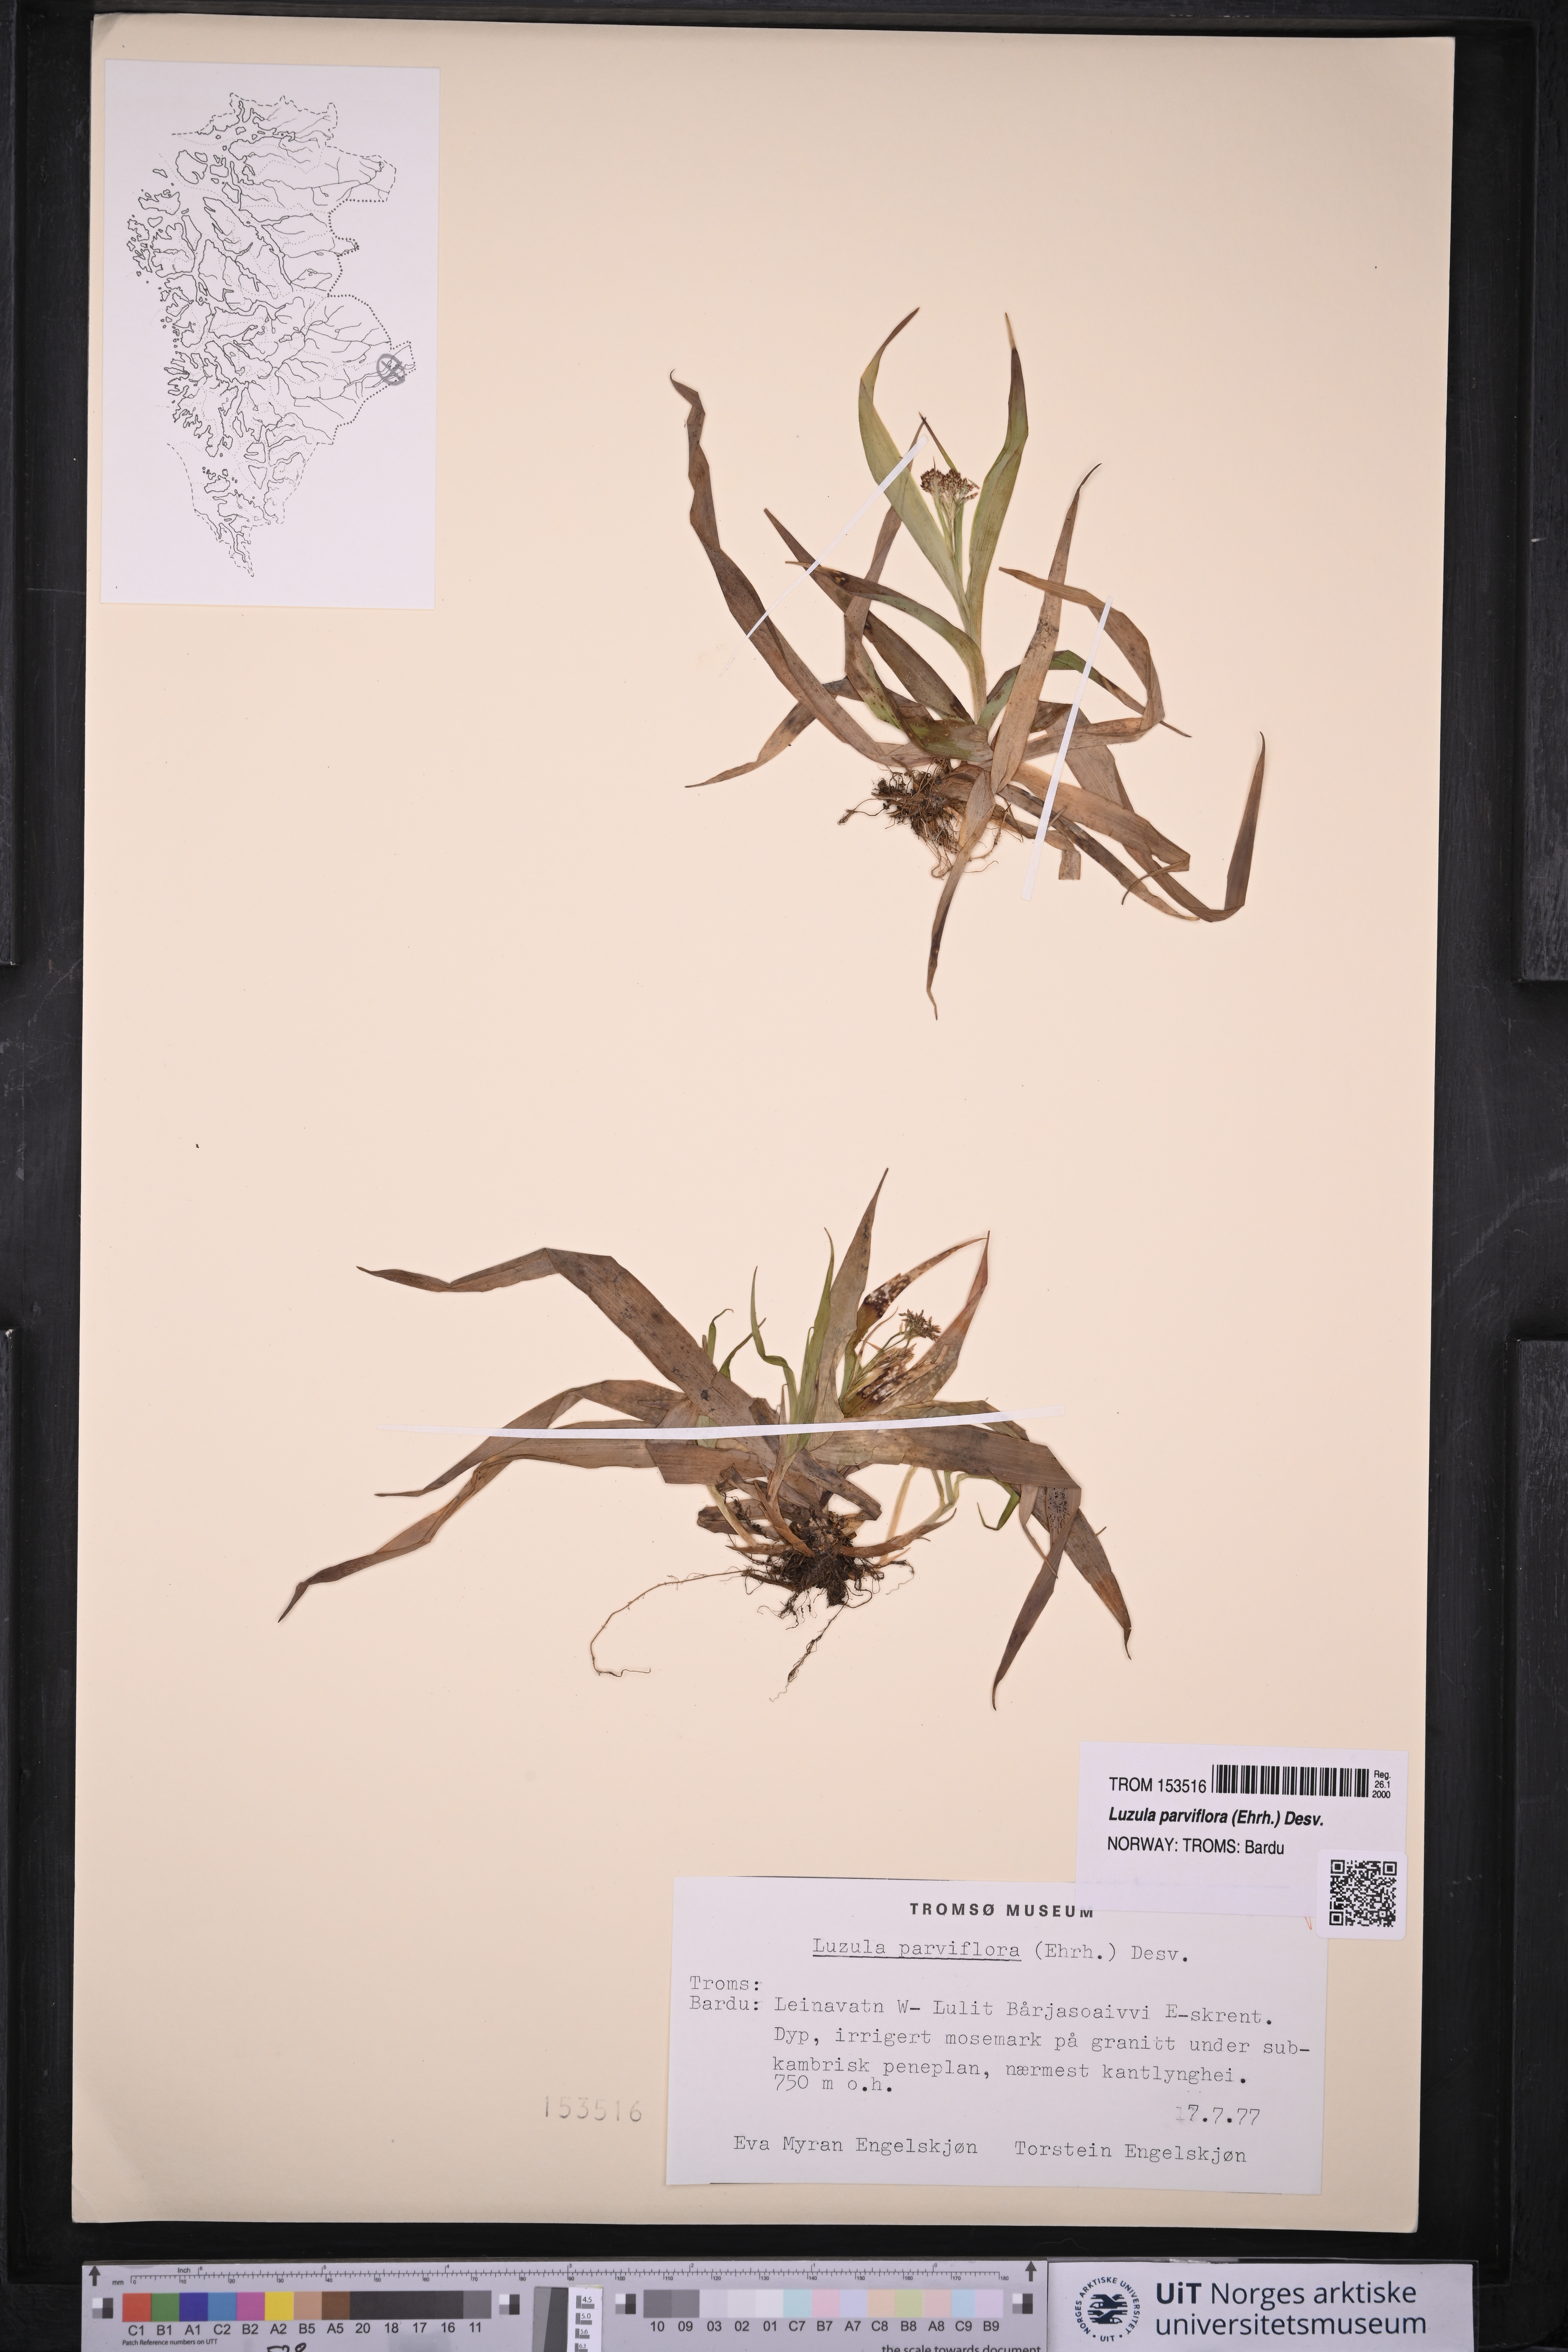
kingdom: Plantae
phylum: Tracheophyta
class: Liliopsida
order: Poales
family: Juncaceae
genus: Luzula
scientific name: Luzula parviflora
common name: Millet woodrush
